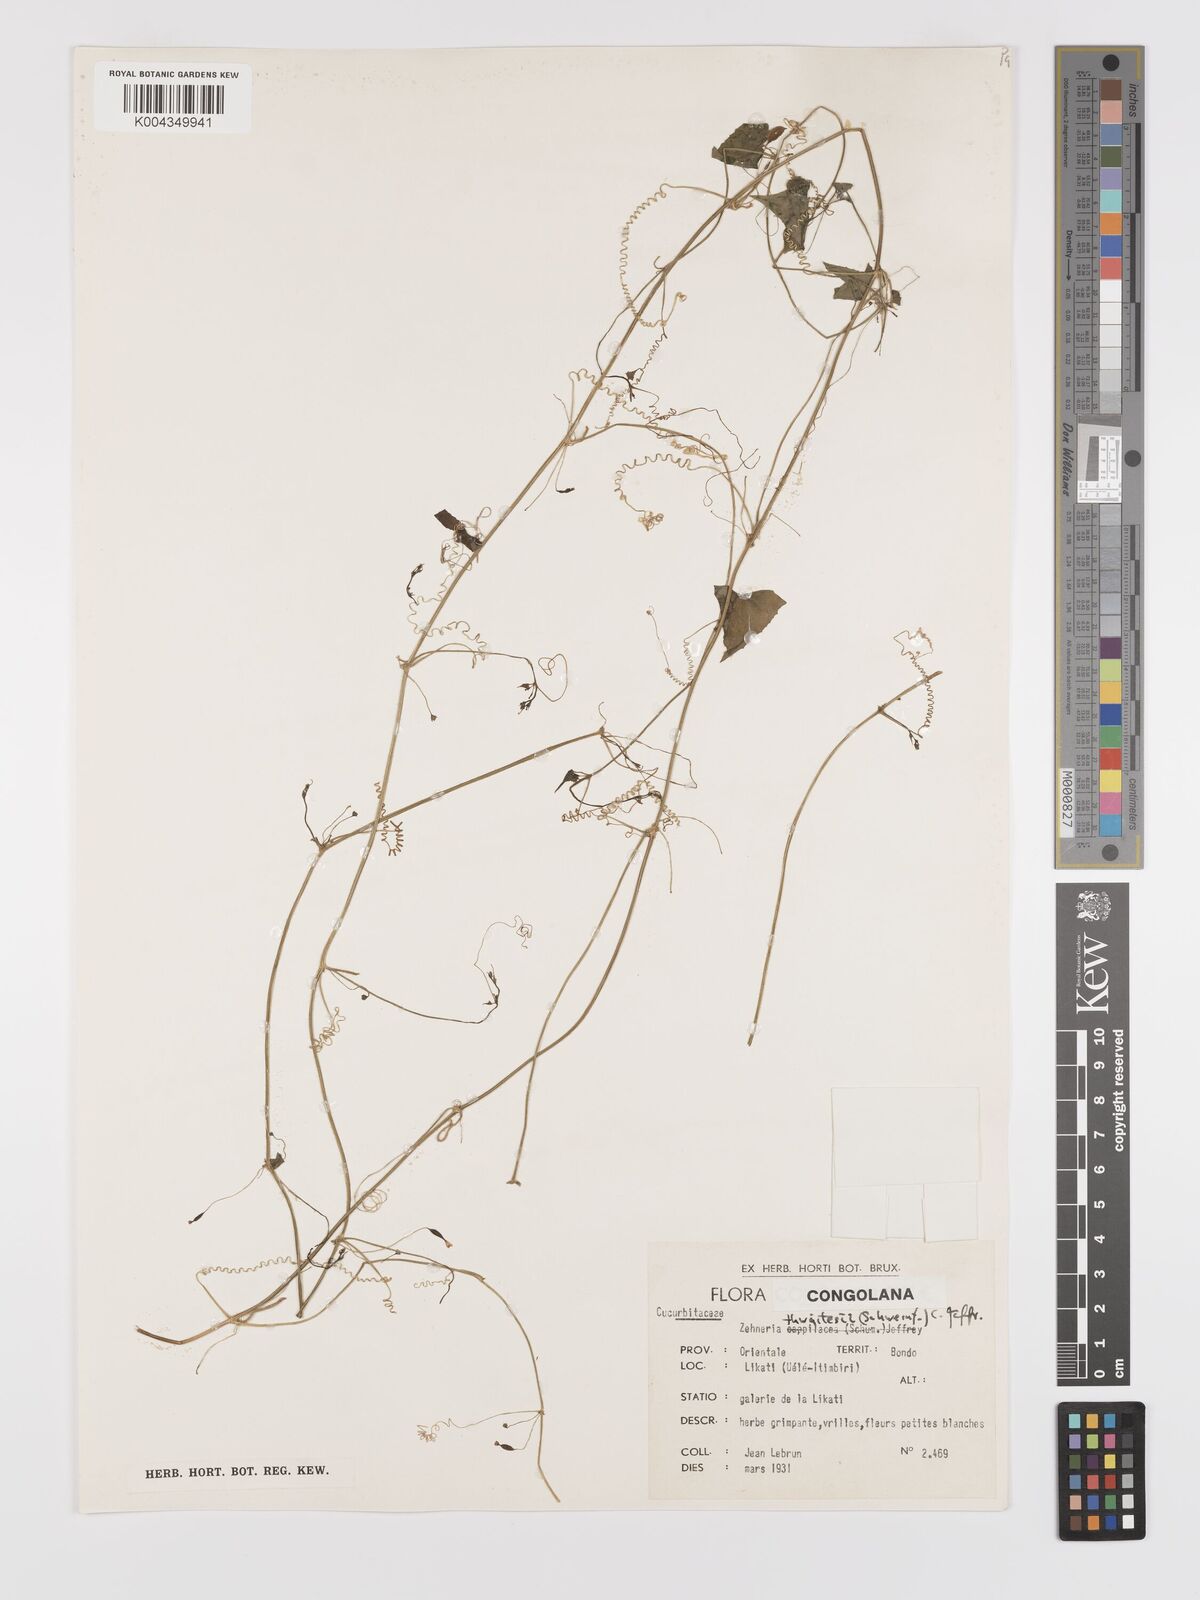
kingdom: Plantae
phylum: Tracheophyta
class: Magnoliopsida
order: Cucurbitales
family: Cucurbitaceae
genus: Zehneria
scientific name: Zehneria thwaitesii
